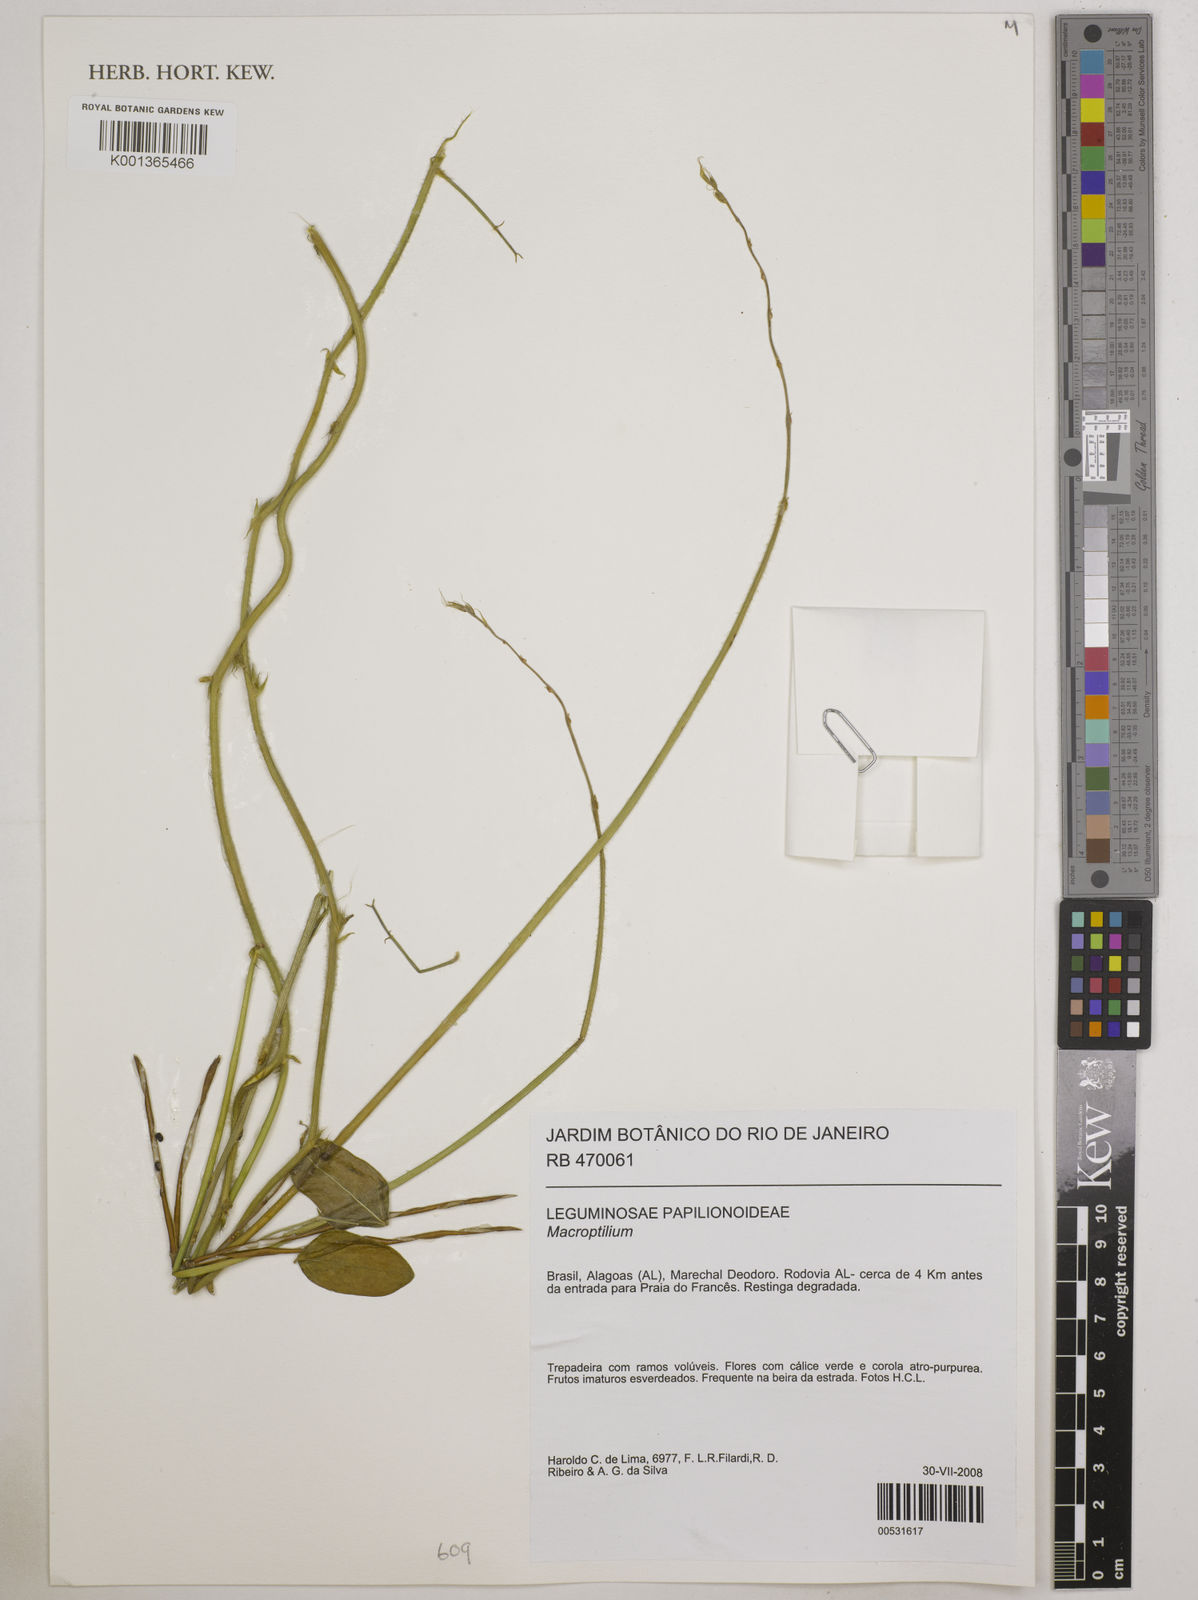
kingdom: Plantae
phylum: Tracheophyta
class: Magnoliopsida
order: Fabales
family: Fabaceae
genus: Macroptilium
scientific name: Macroptilium
